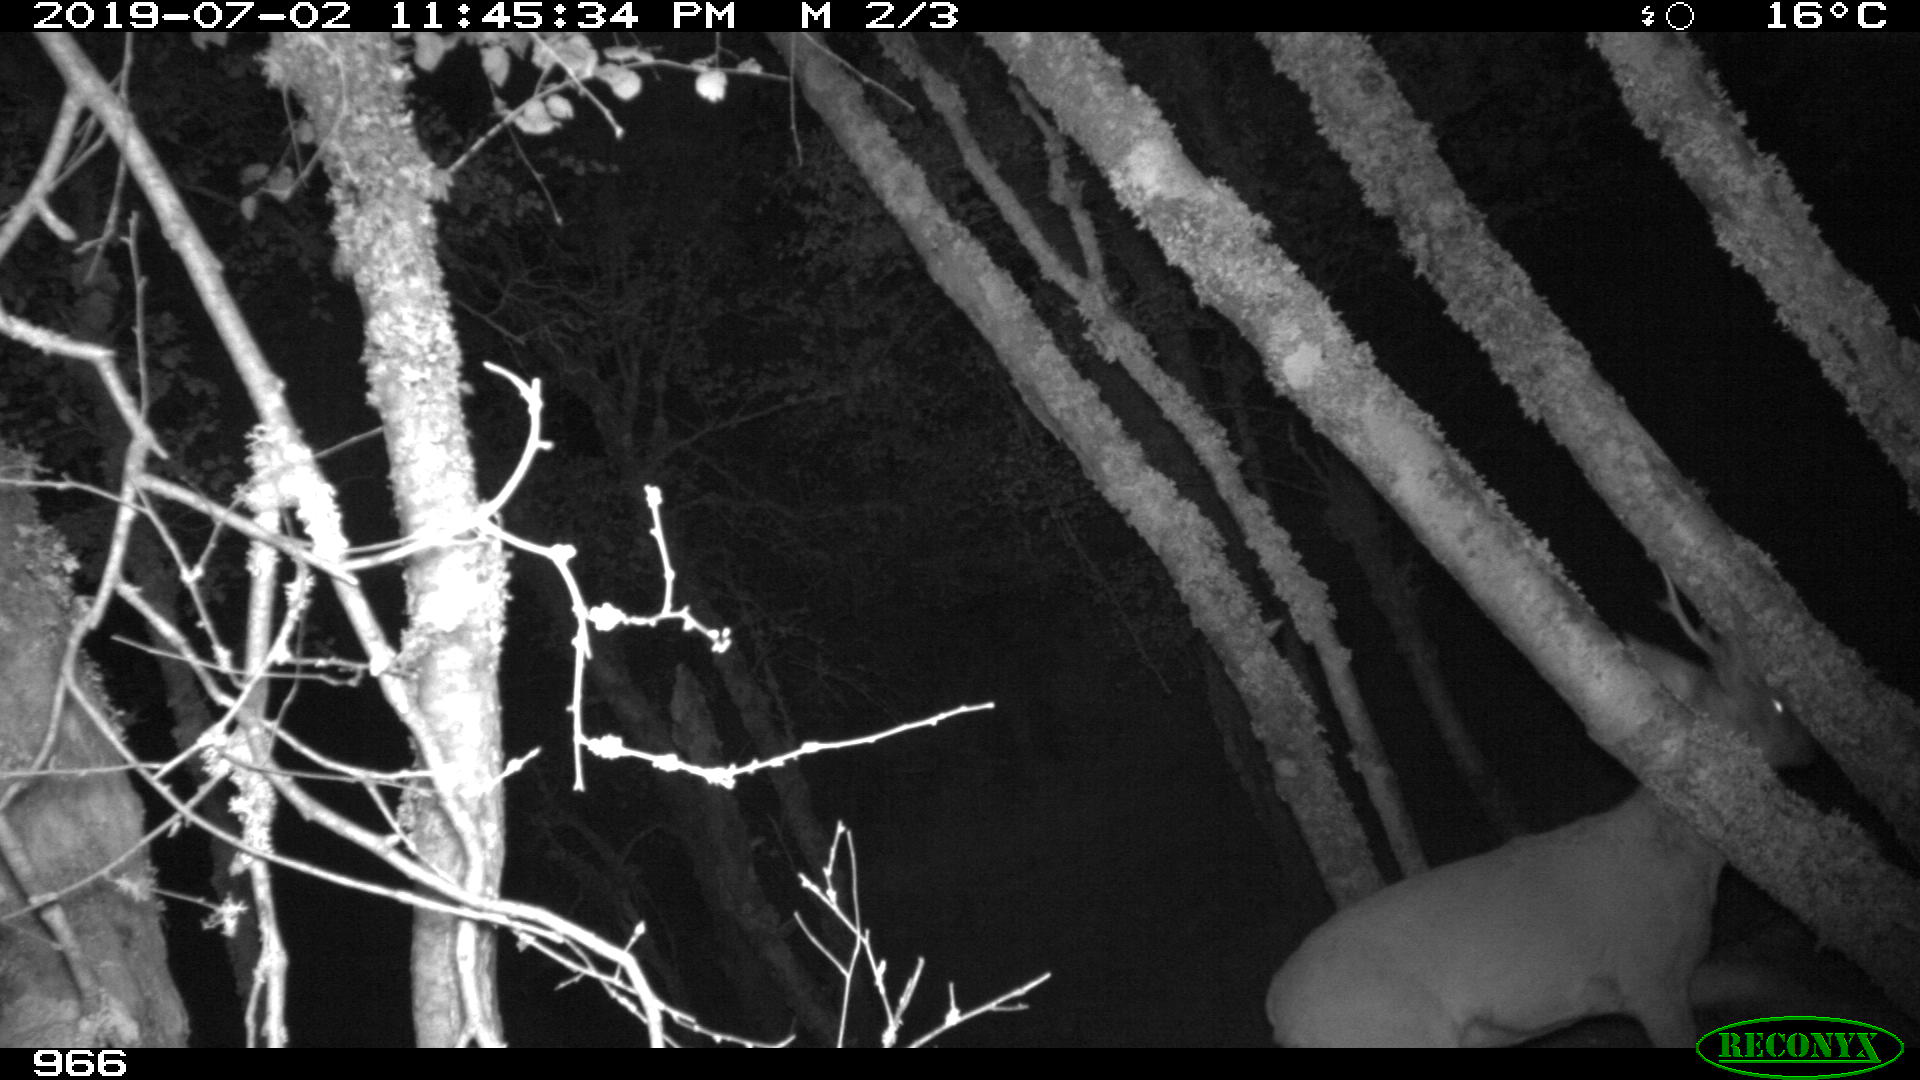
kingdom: Animalia
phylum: Chordata
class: Mammalia
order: Artiodactyla
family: Cervidae
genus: Capreolus
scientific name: Capreolus capreolus
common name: Western roe deer
